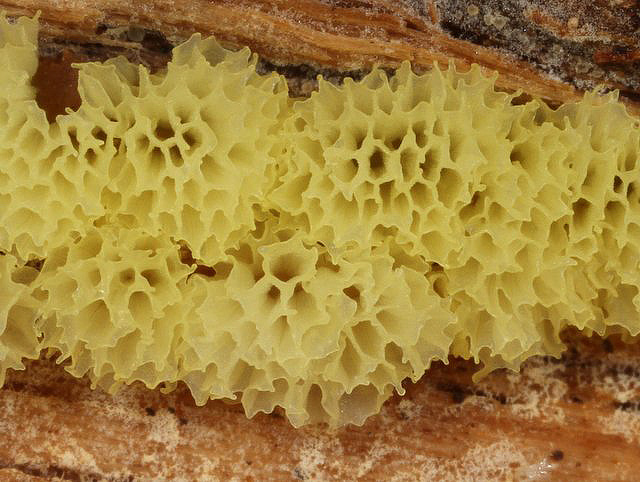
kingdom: Protozoa
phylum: Mycetozoa
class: Protosteliomycetes
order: Ceratiomyxales
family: Ceratiomyxaceae
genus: Ceratiomyxa
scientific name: Ceratiomyxa fruticulosa
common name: Honeycomb coral slime mold
